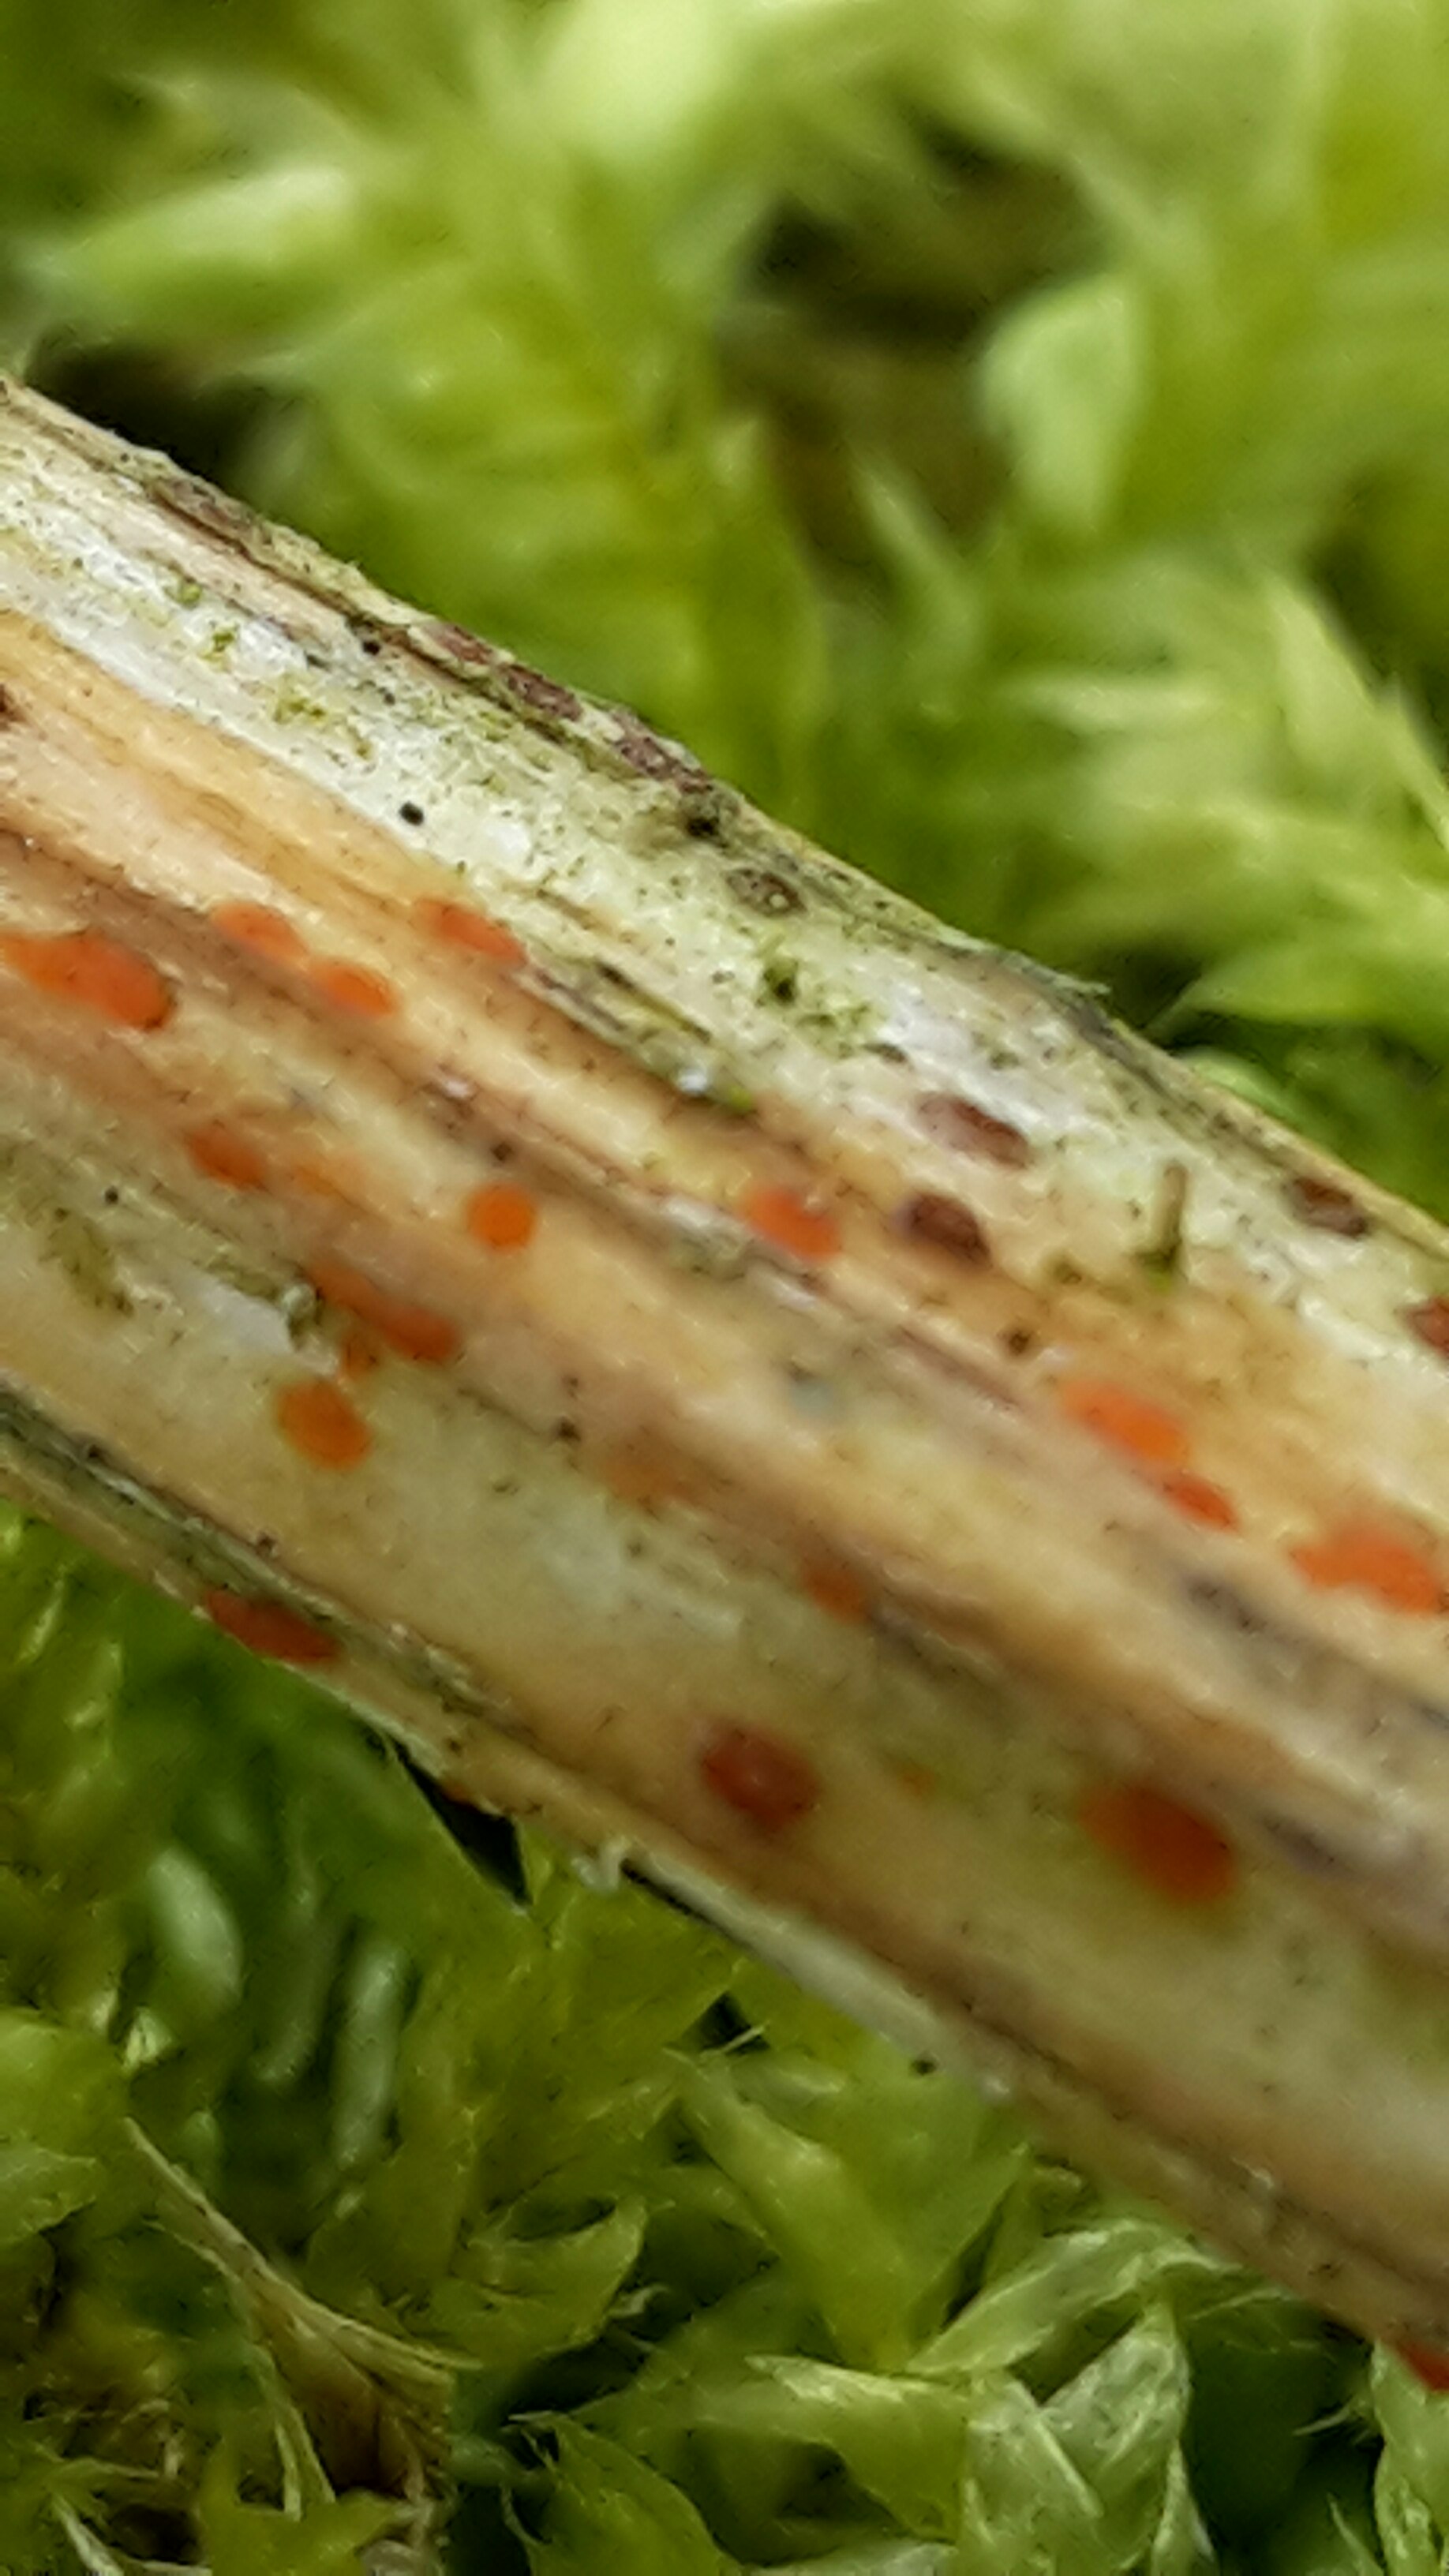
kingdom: Fungi
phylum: Ascomycota
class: Leotiomycetes
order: Helotiales
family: Calloriaceae
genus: Calloria
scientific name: Calloria urticae
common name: nælde-orangeskive
